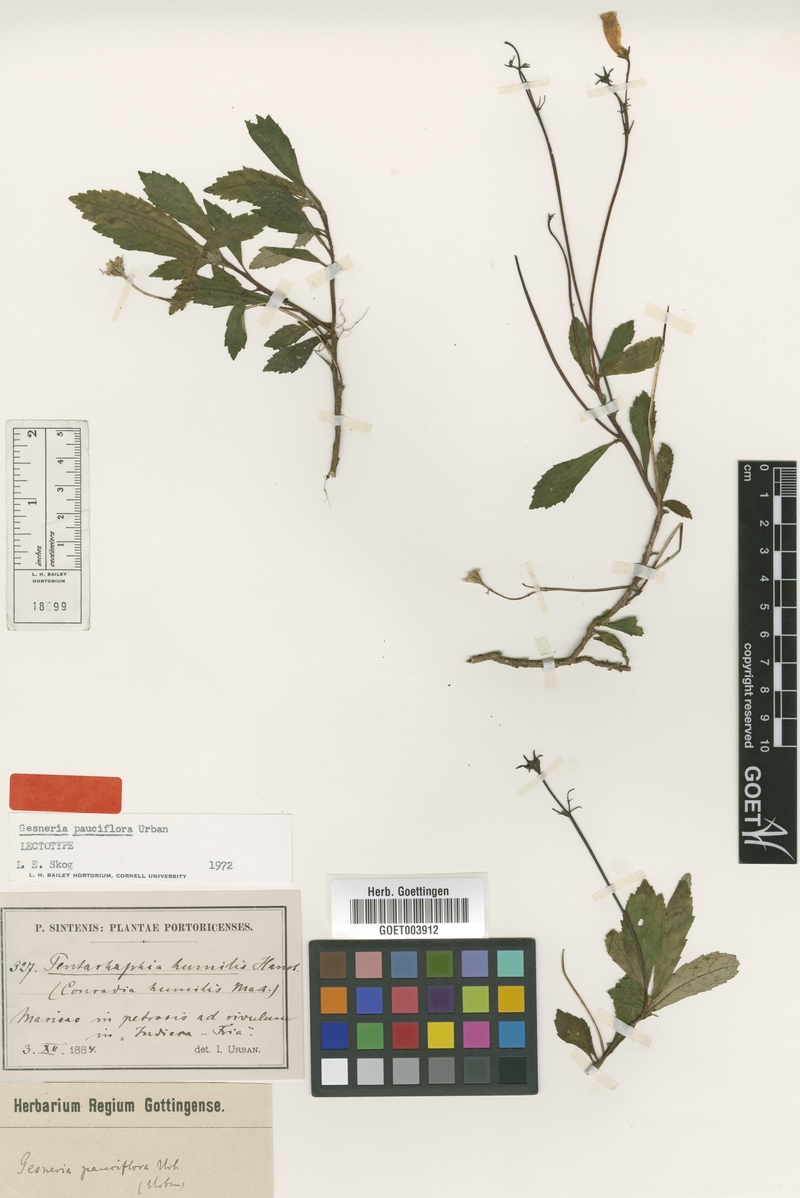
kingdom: Plantae
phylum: Tracheophyta
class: Magnoliopsida
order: Lamiales
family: Gesneriaceae
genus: Gesneria
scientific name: Gesneria pauciflora
